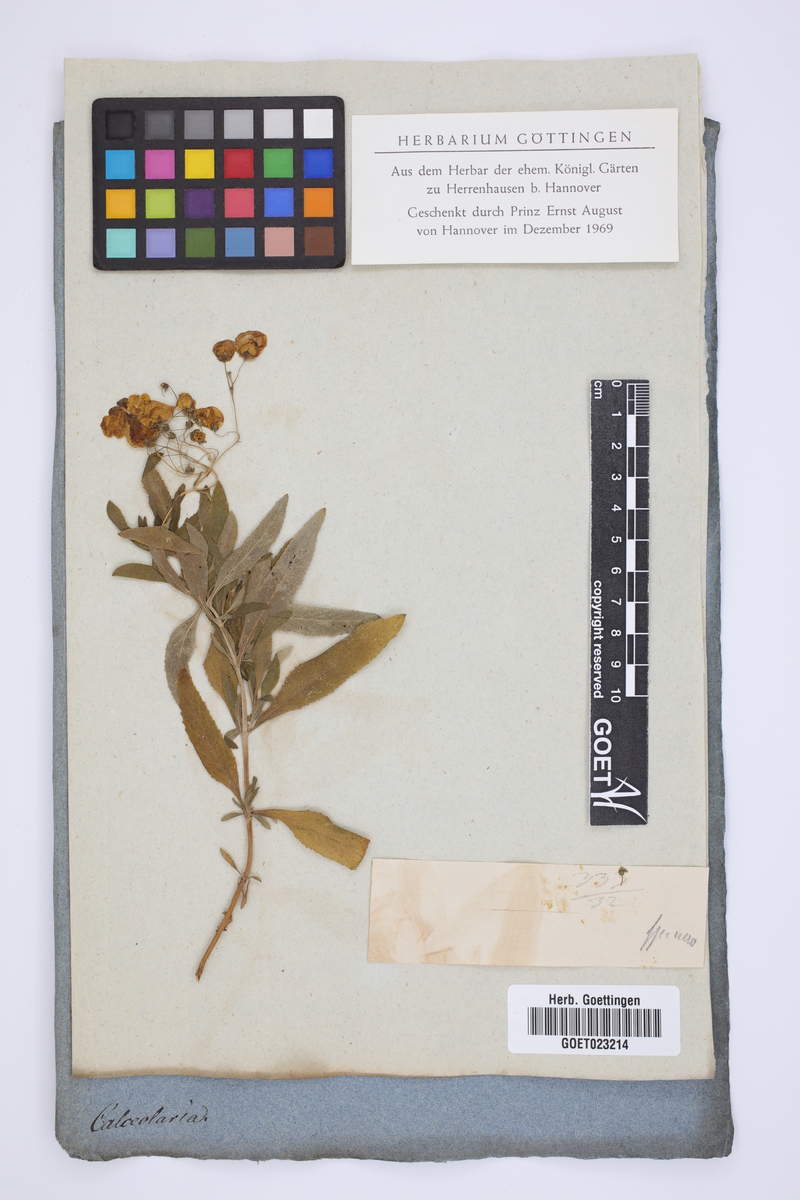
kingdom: Plantae
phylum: Tracheophyta
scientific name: Tracheophyta
